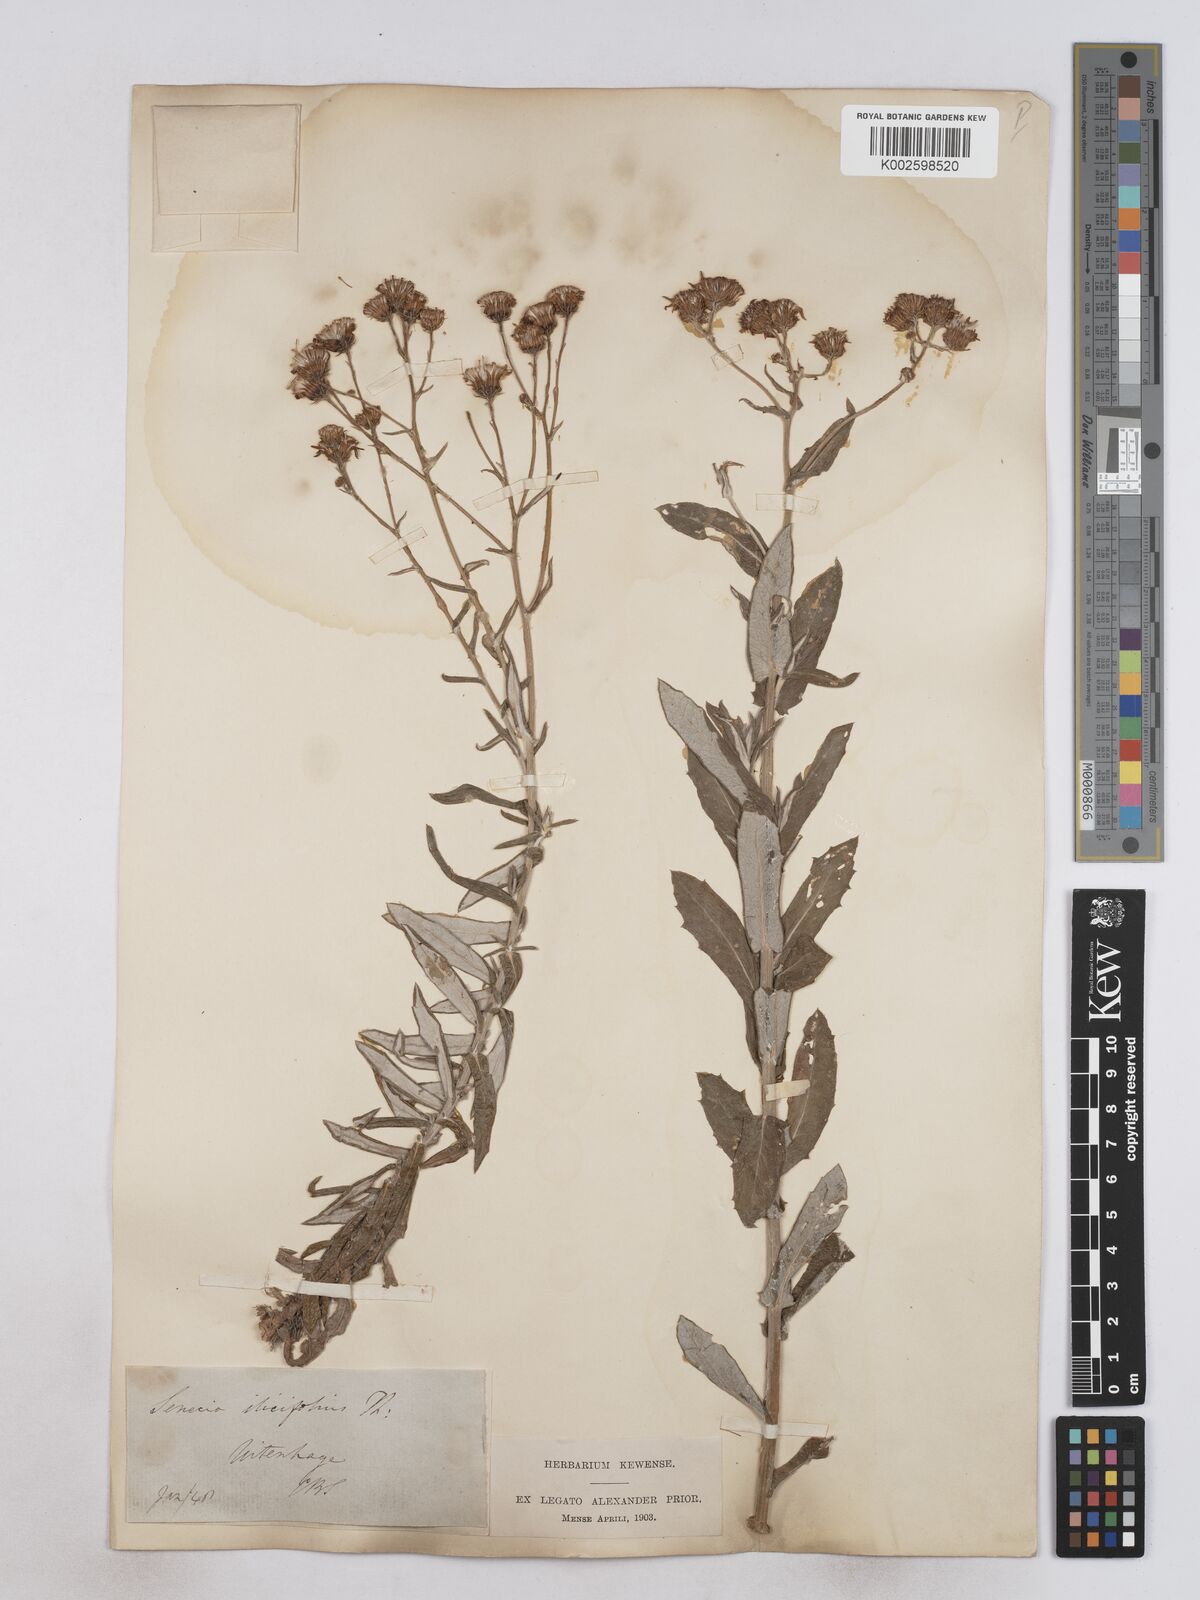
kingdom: Plantae
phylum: Tracheophyta
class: Magnoliopsida
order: Asterales
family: Asteraceae
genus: Senecio
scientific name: Senecio ilicifolius
